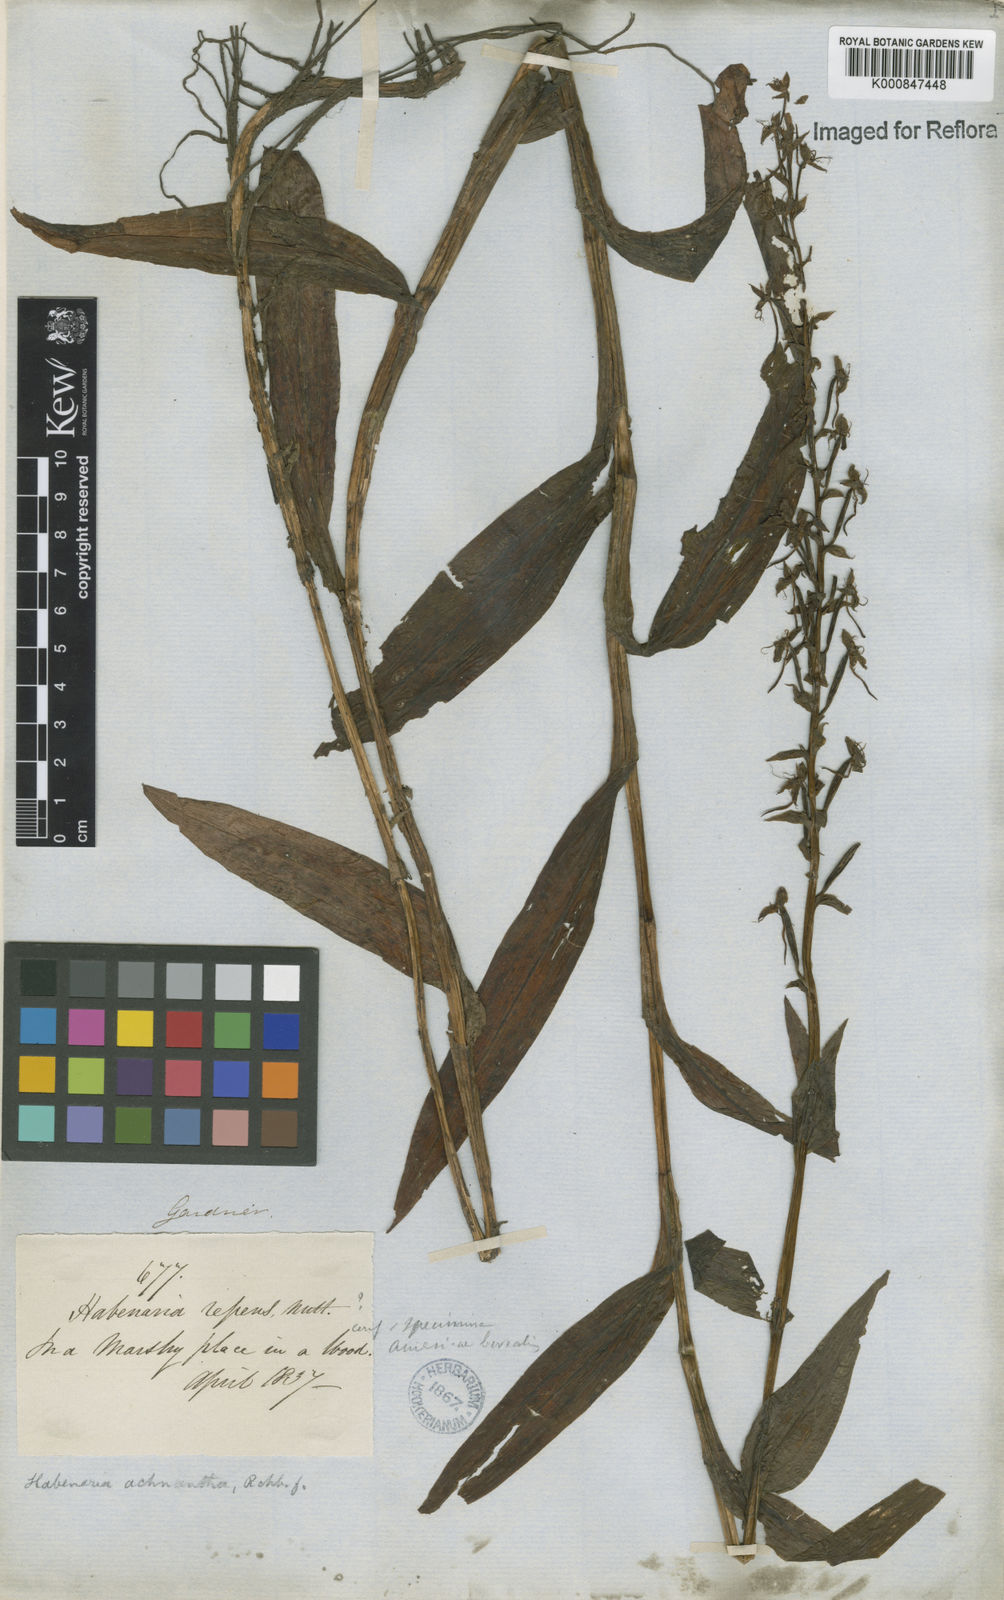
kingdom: Plantae
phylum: Tracheophyta
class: Liliopsida
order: Asparagales
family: Orchidaceae
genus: Habenaria
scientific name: Habenaria repens
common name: Water orchid
